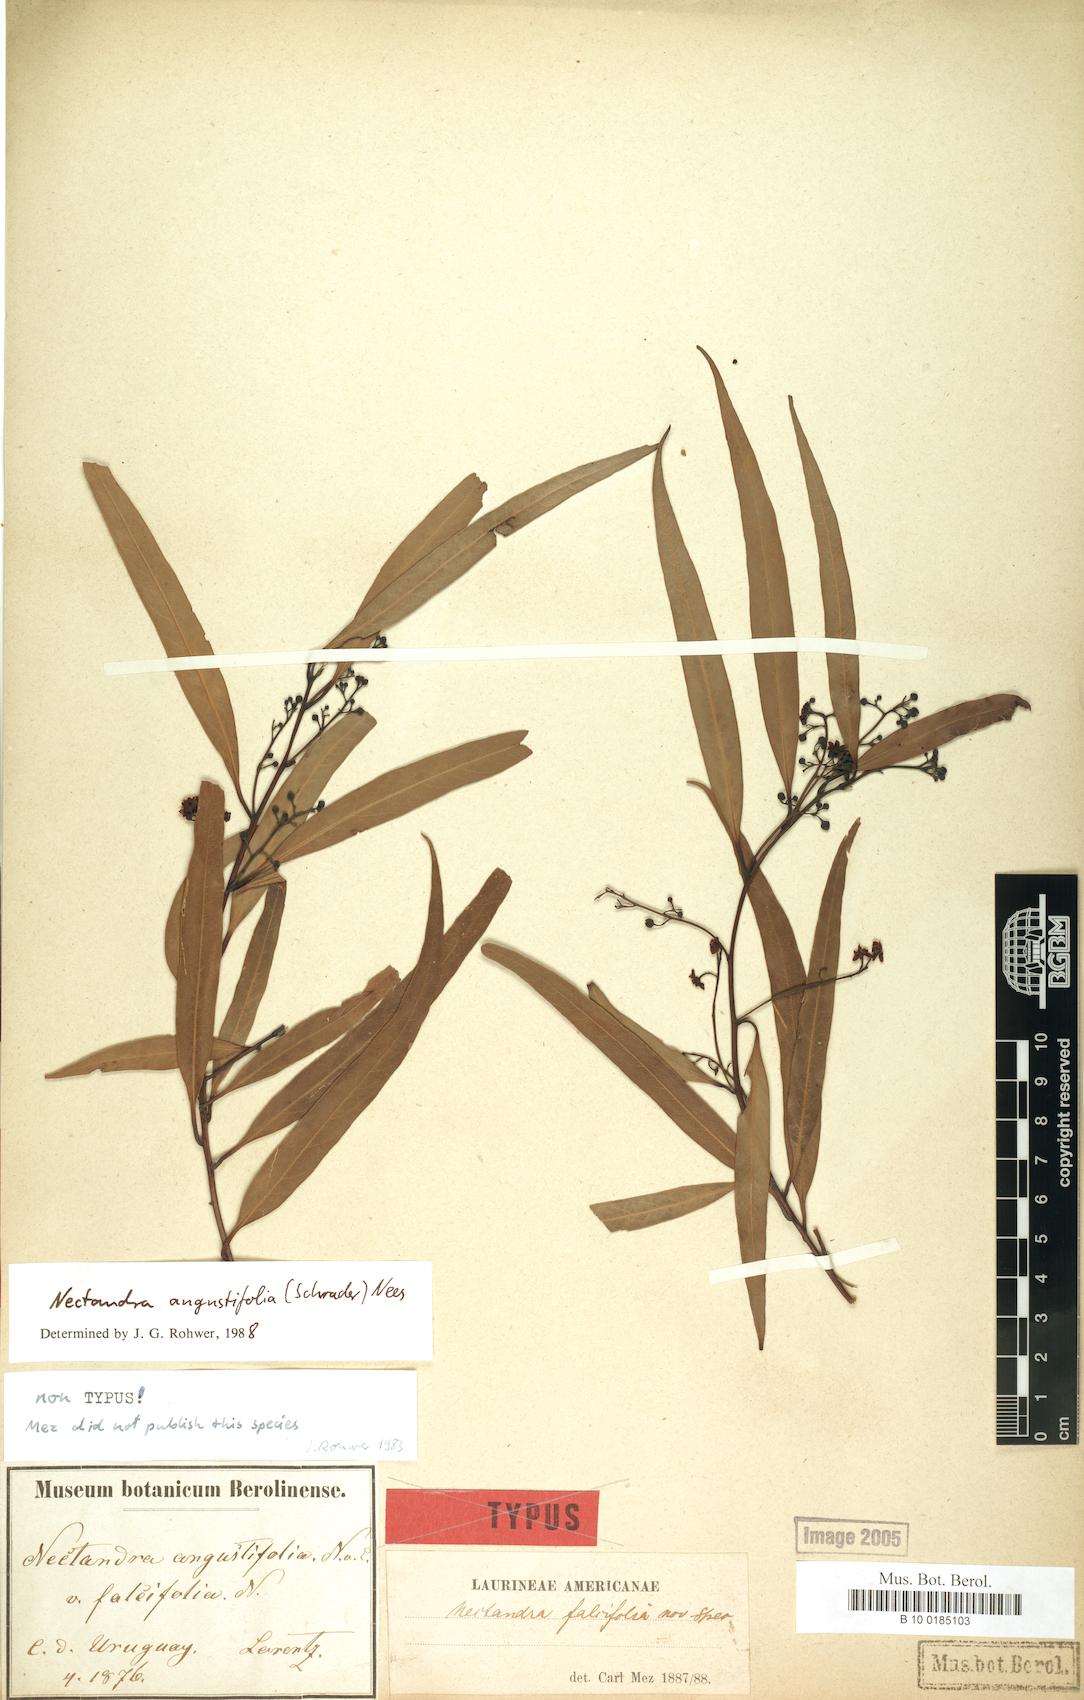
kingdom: Plantae
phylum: Tracheophyta
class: Magnoliopsida
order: Laurales
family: Lauraceae
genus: Nectandra
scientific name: Nectandra angustifolia
